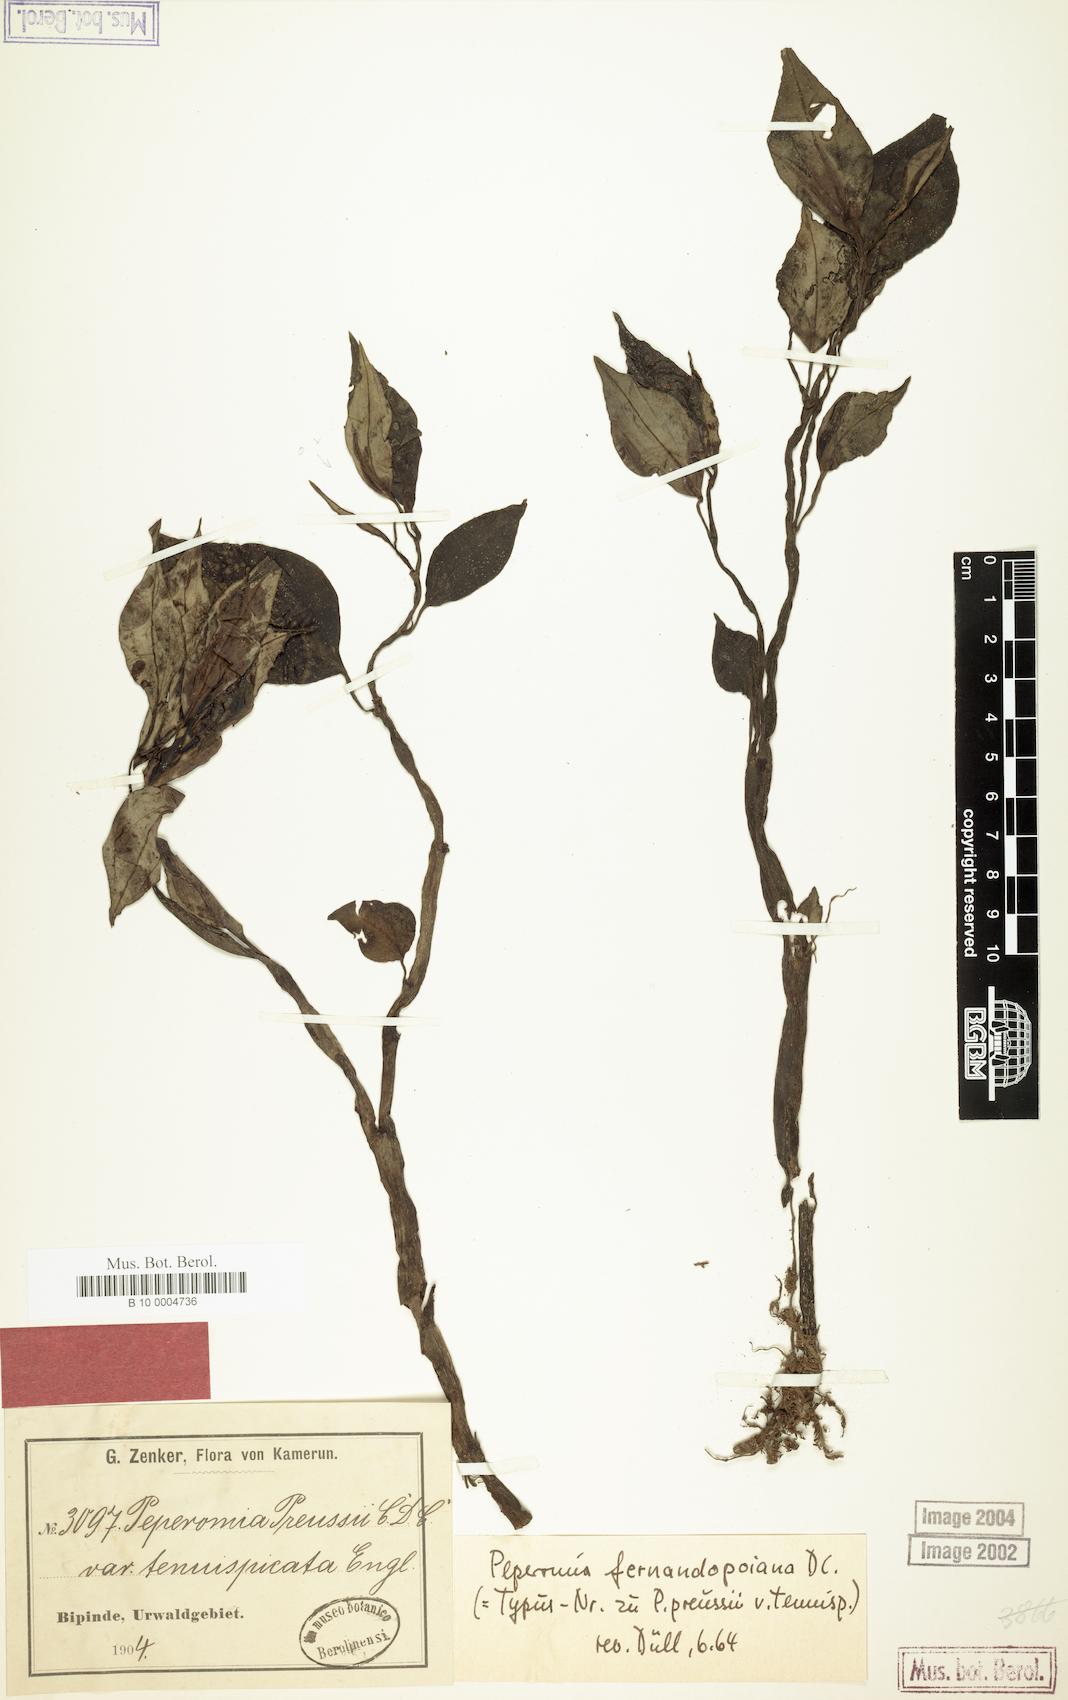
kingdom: Plantae
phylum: Tracheophyta
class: Magnoliopsida
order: Piperales
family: Piperaceae
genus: Peperomia
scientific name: Peperomia fernandopoiana
